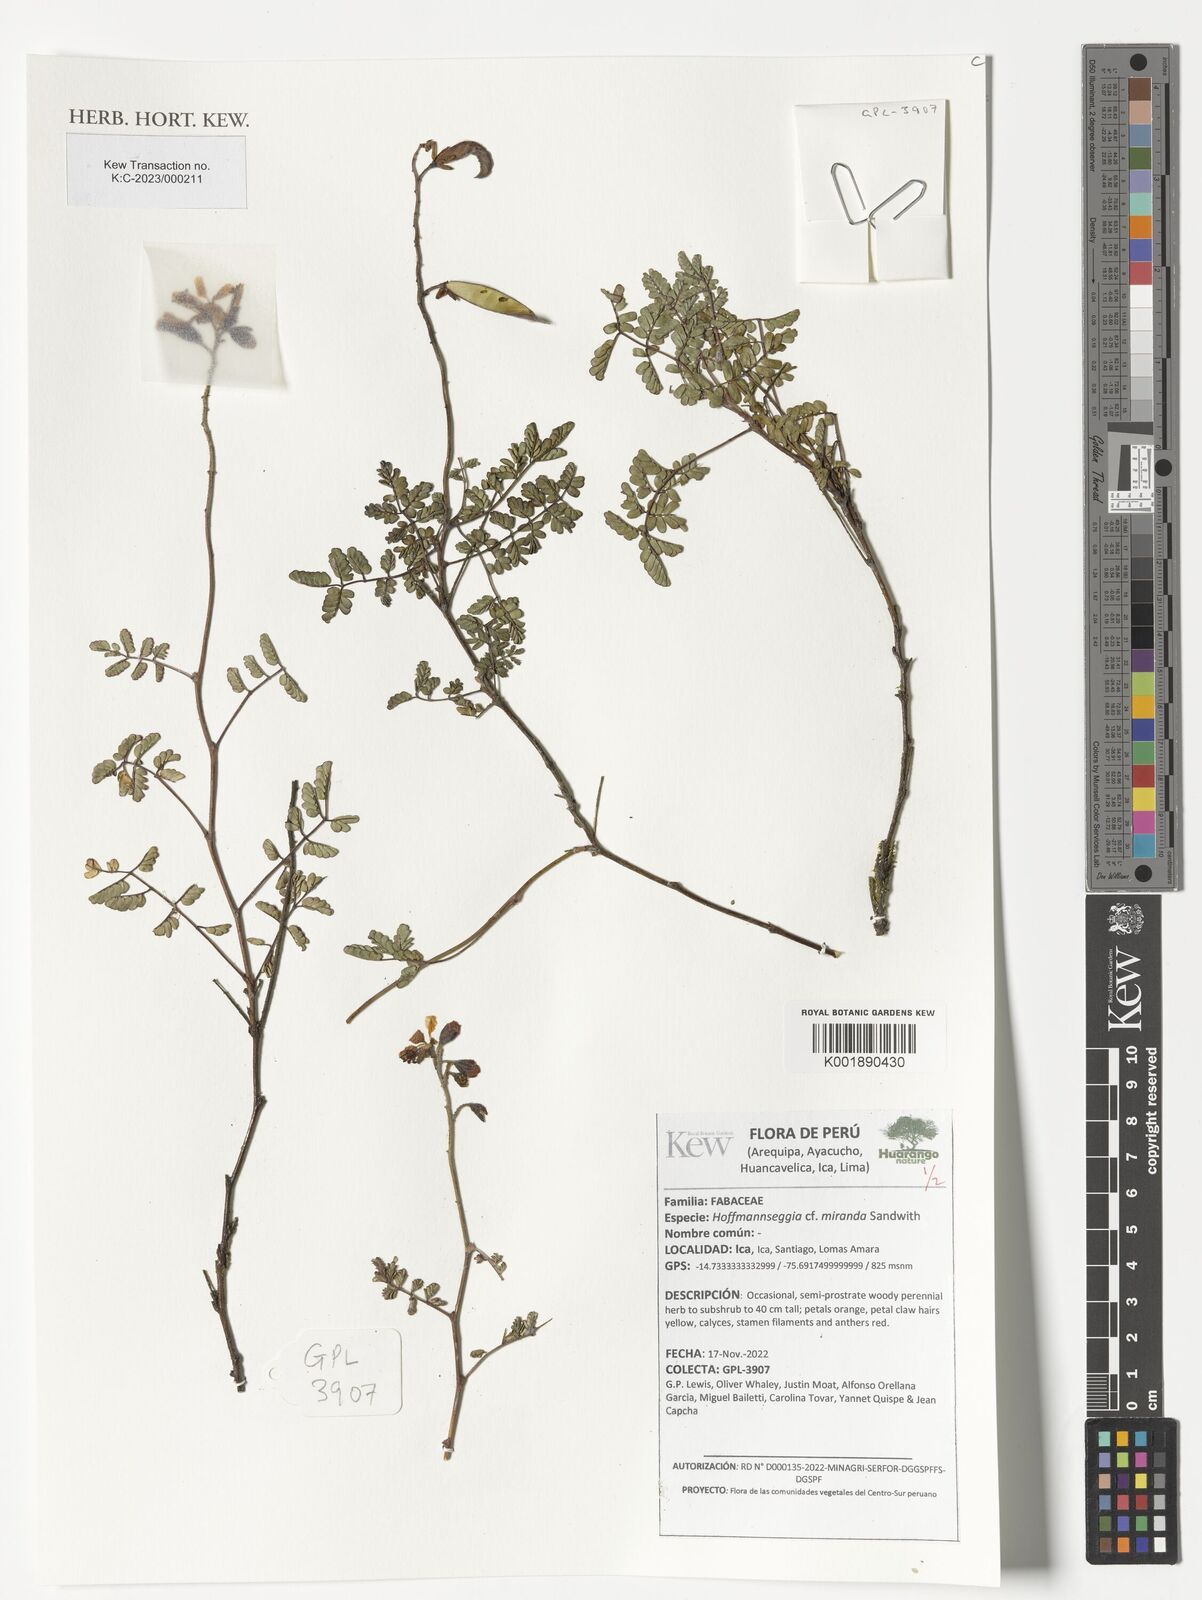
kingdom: Plantae
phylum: Tracheophyta
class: Magnoliopsida
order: Fabales
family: Fabaceae
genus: Hoffmannseggia
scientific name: Hoffmannseggia miranda
